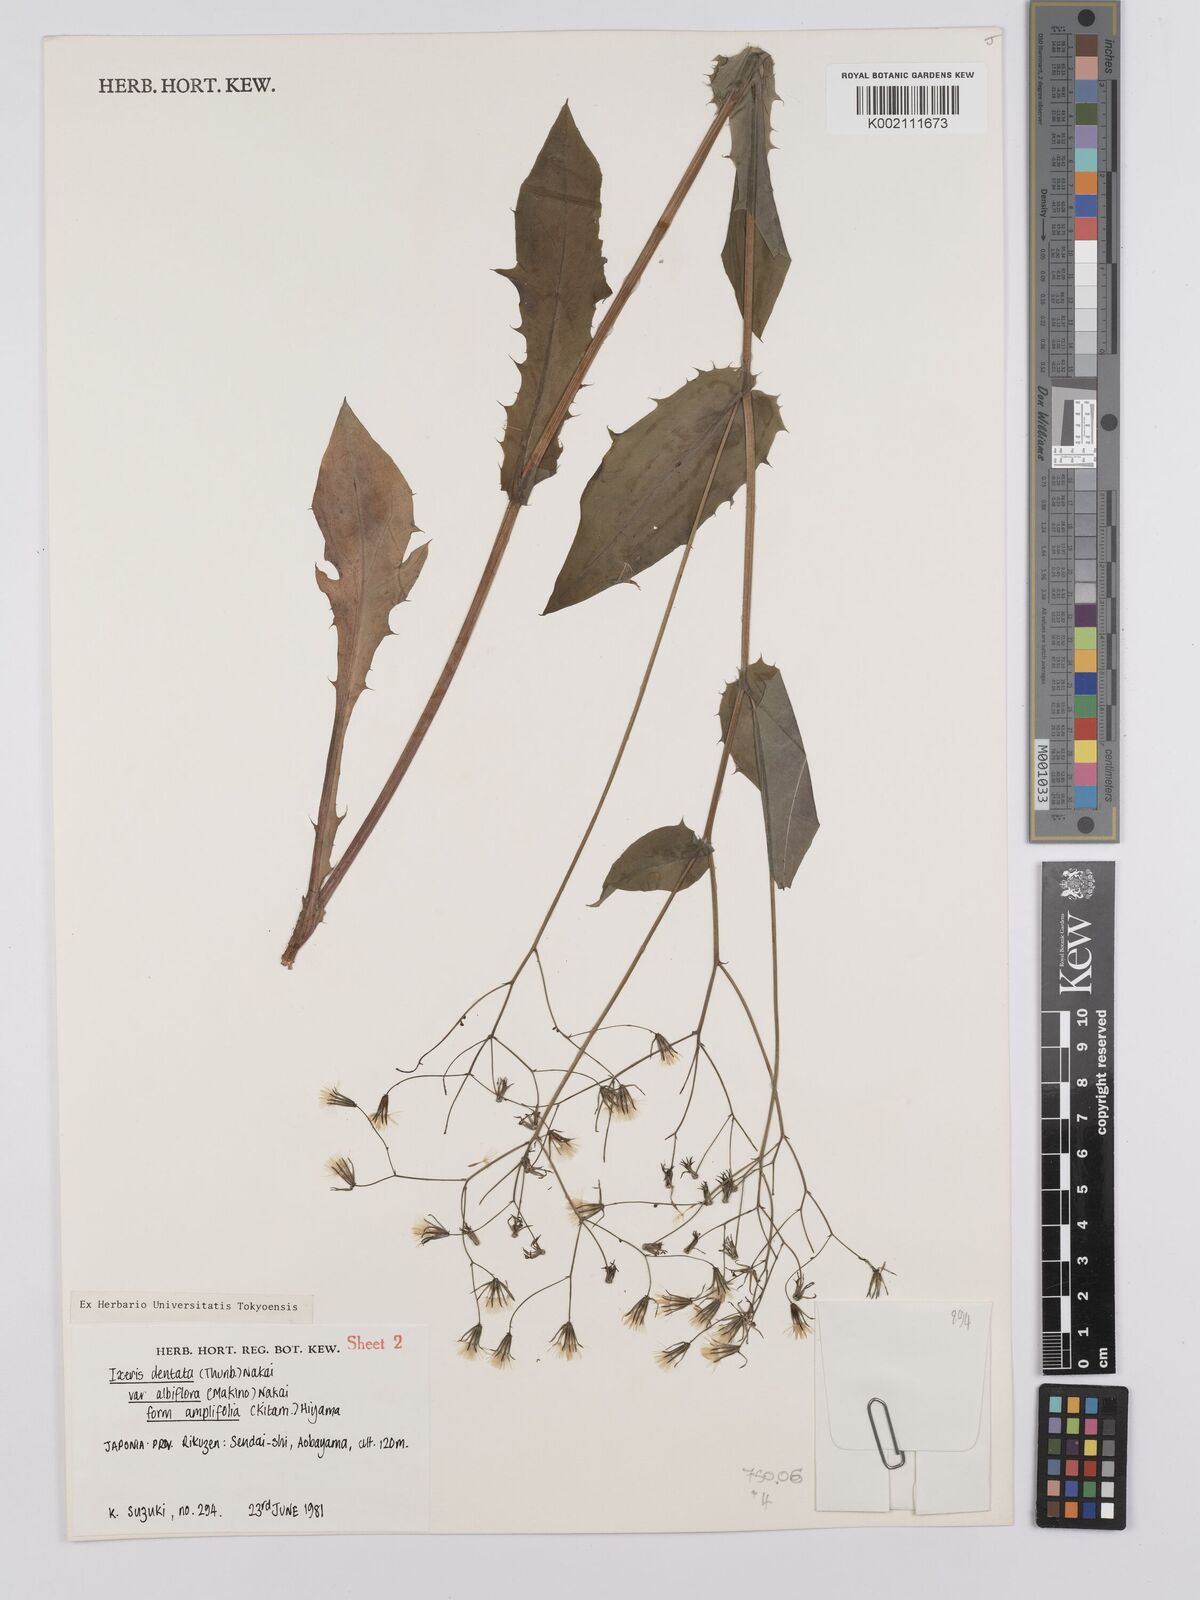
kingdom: Plantae
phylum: Tracheophyta
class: Magnoliopsida
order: Asterales
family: Asteraceae
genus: Ixeridium
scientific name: Ixeridium dentatum
